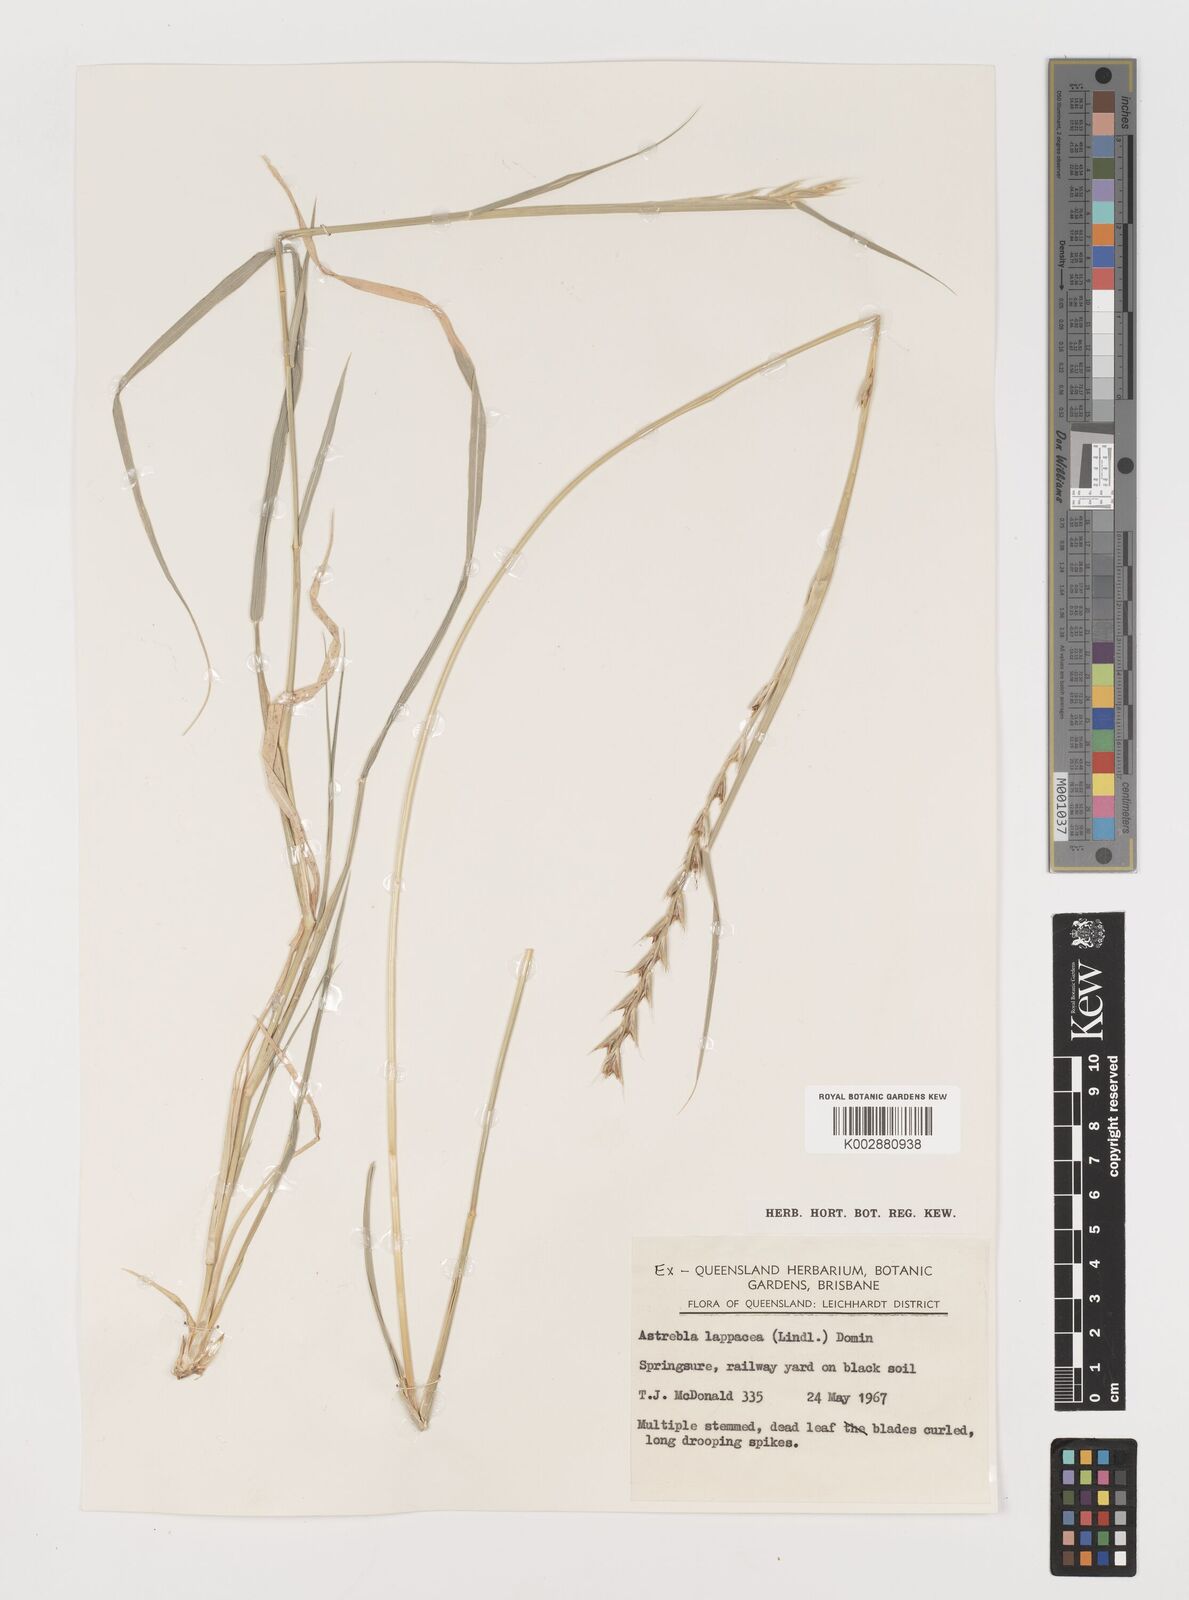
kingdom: Plantae
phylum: Tracheophyta
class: Liliopsida
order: Poales
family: Poaceae
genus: Astrebla
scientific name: Astrebla lappacea
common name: Curly mitchell grass
